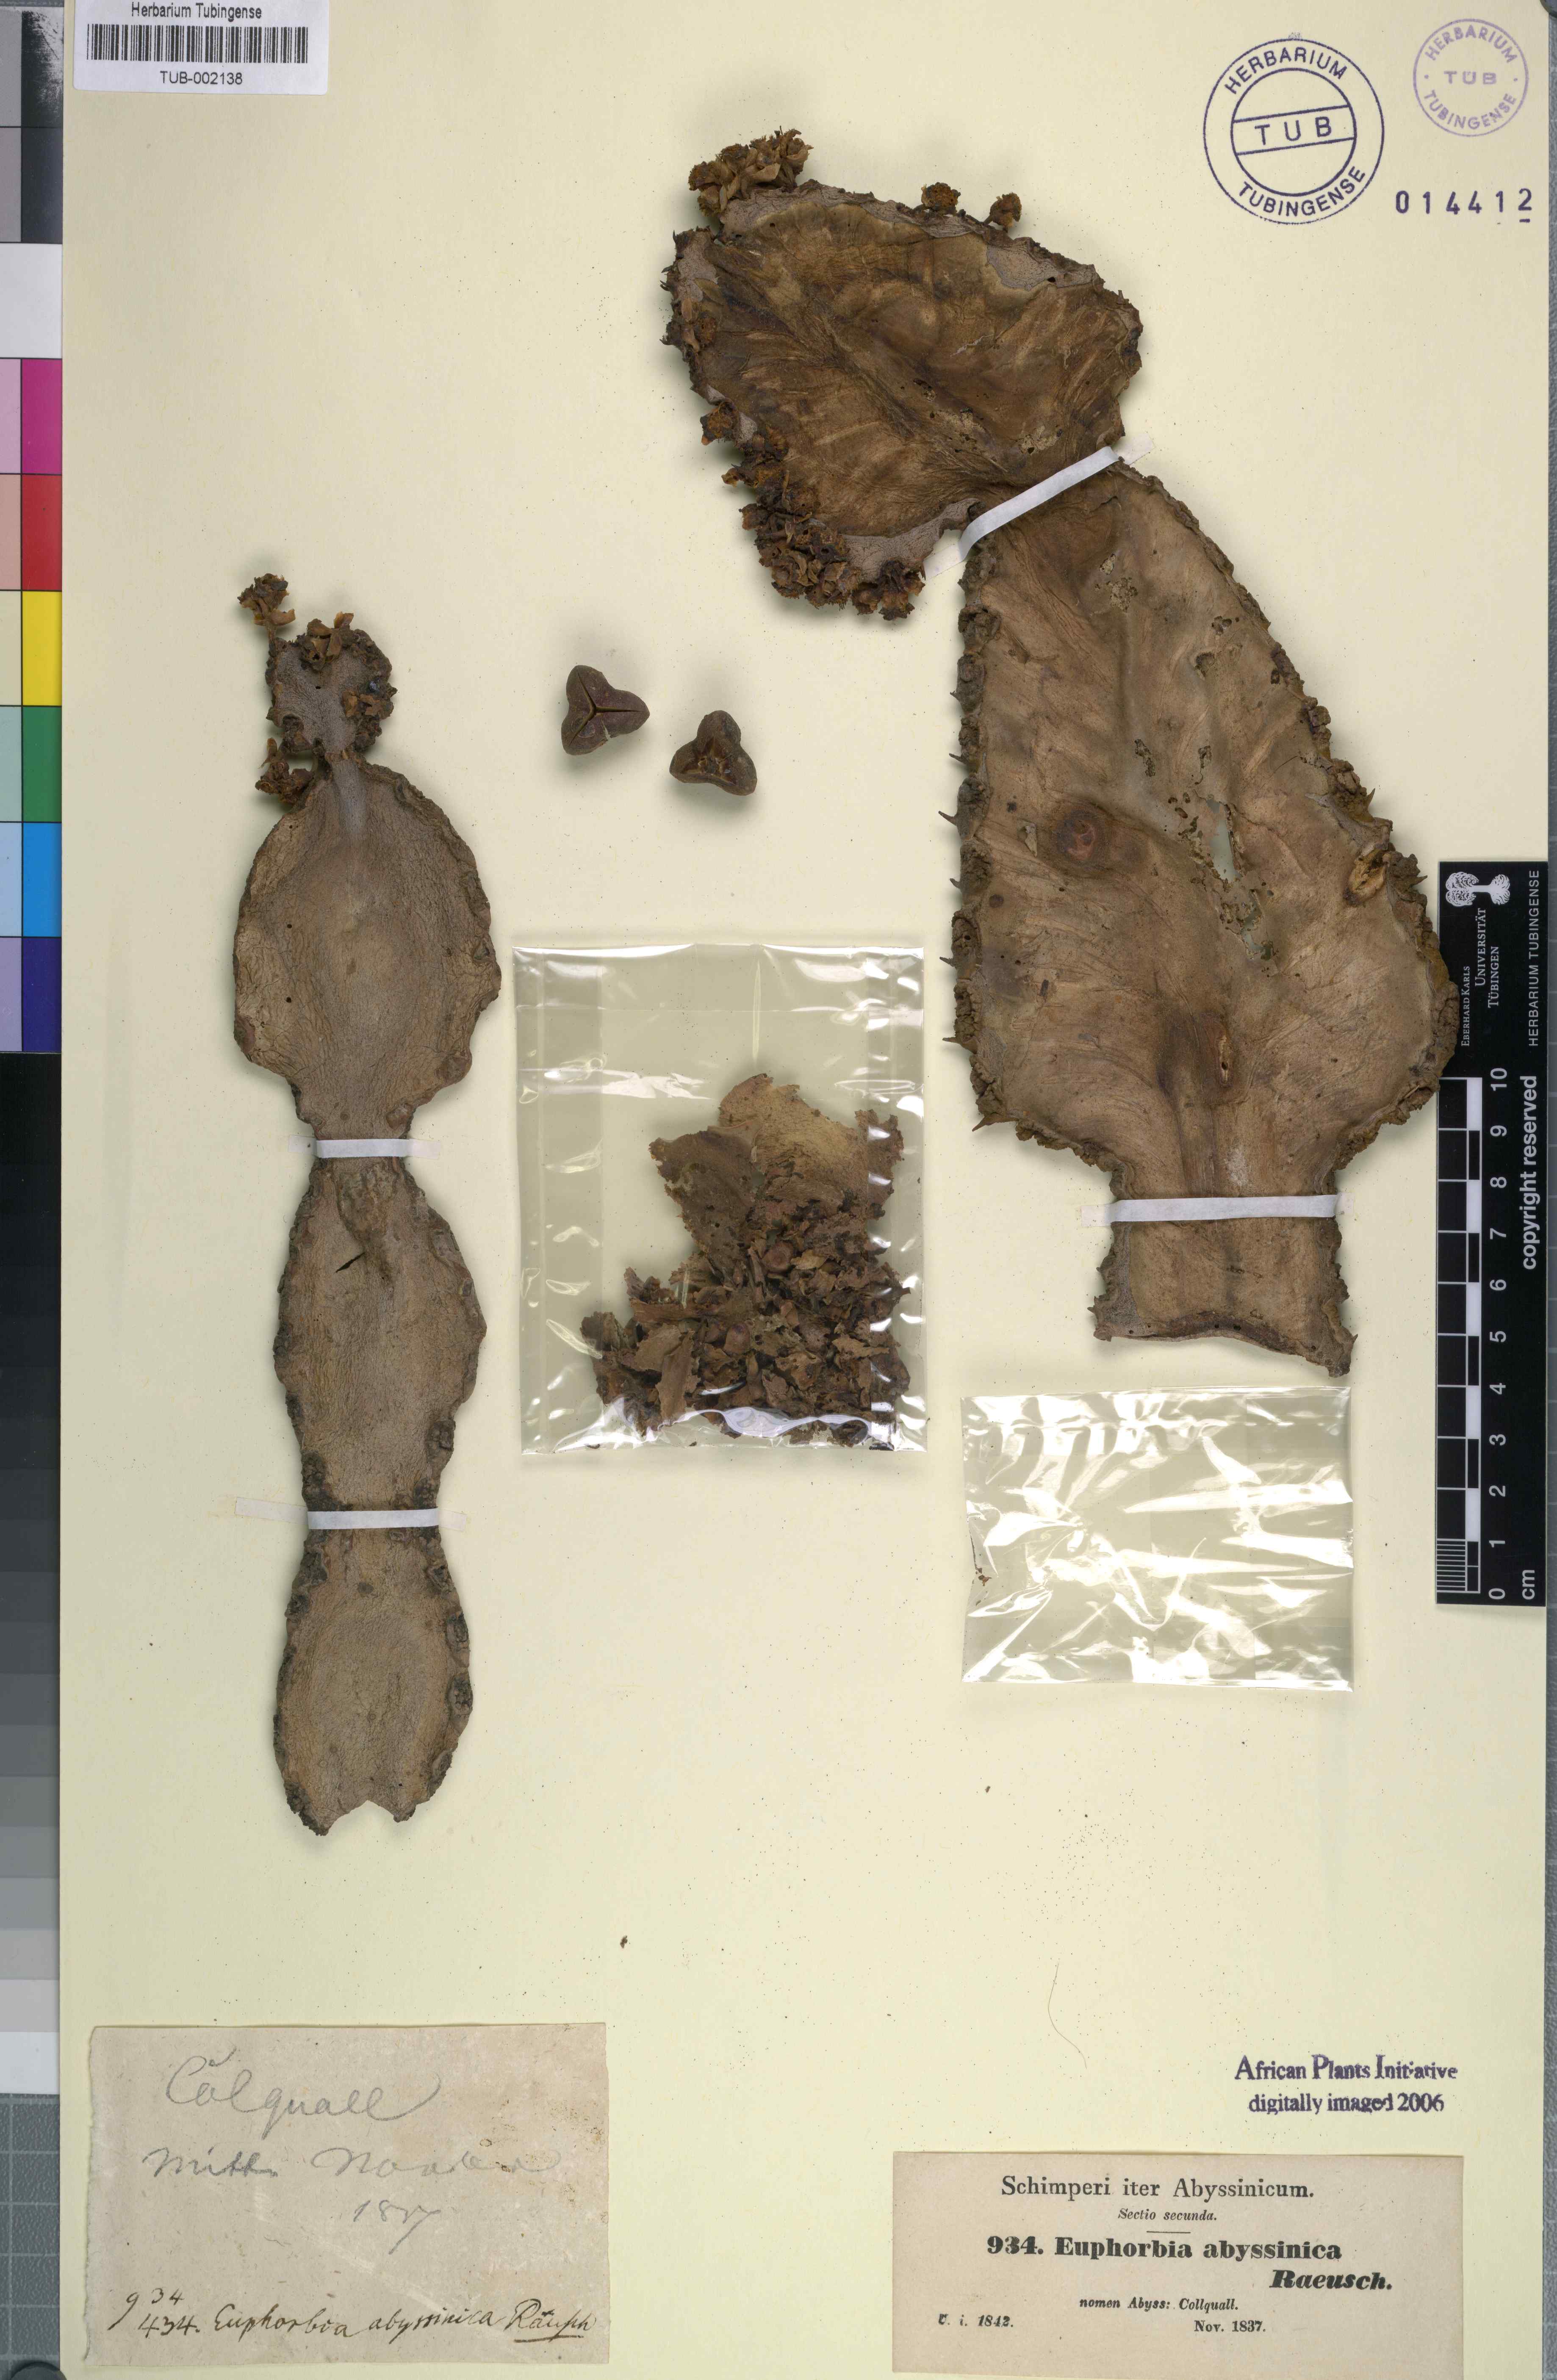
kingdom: Plantae
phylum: Tracheophyta
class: Magnoliopsida
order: Malpighiales
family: Euphorbiaceae
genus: Euphorbia
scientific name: Euphorbia abyssinica
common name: Abyssinian spurge
